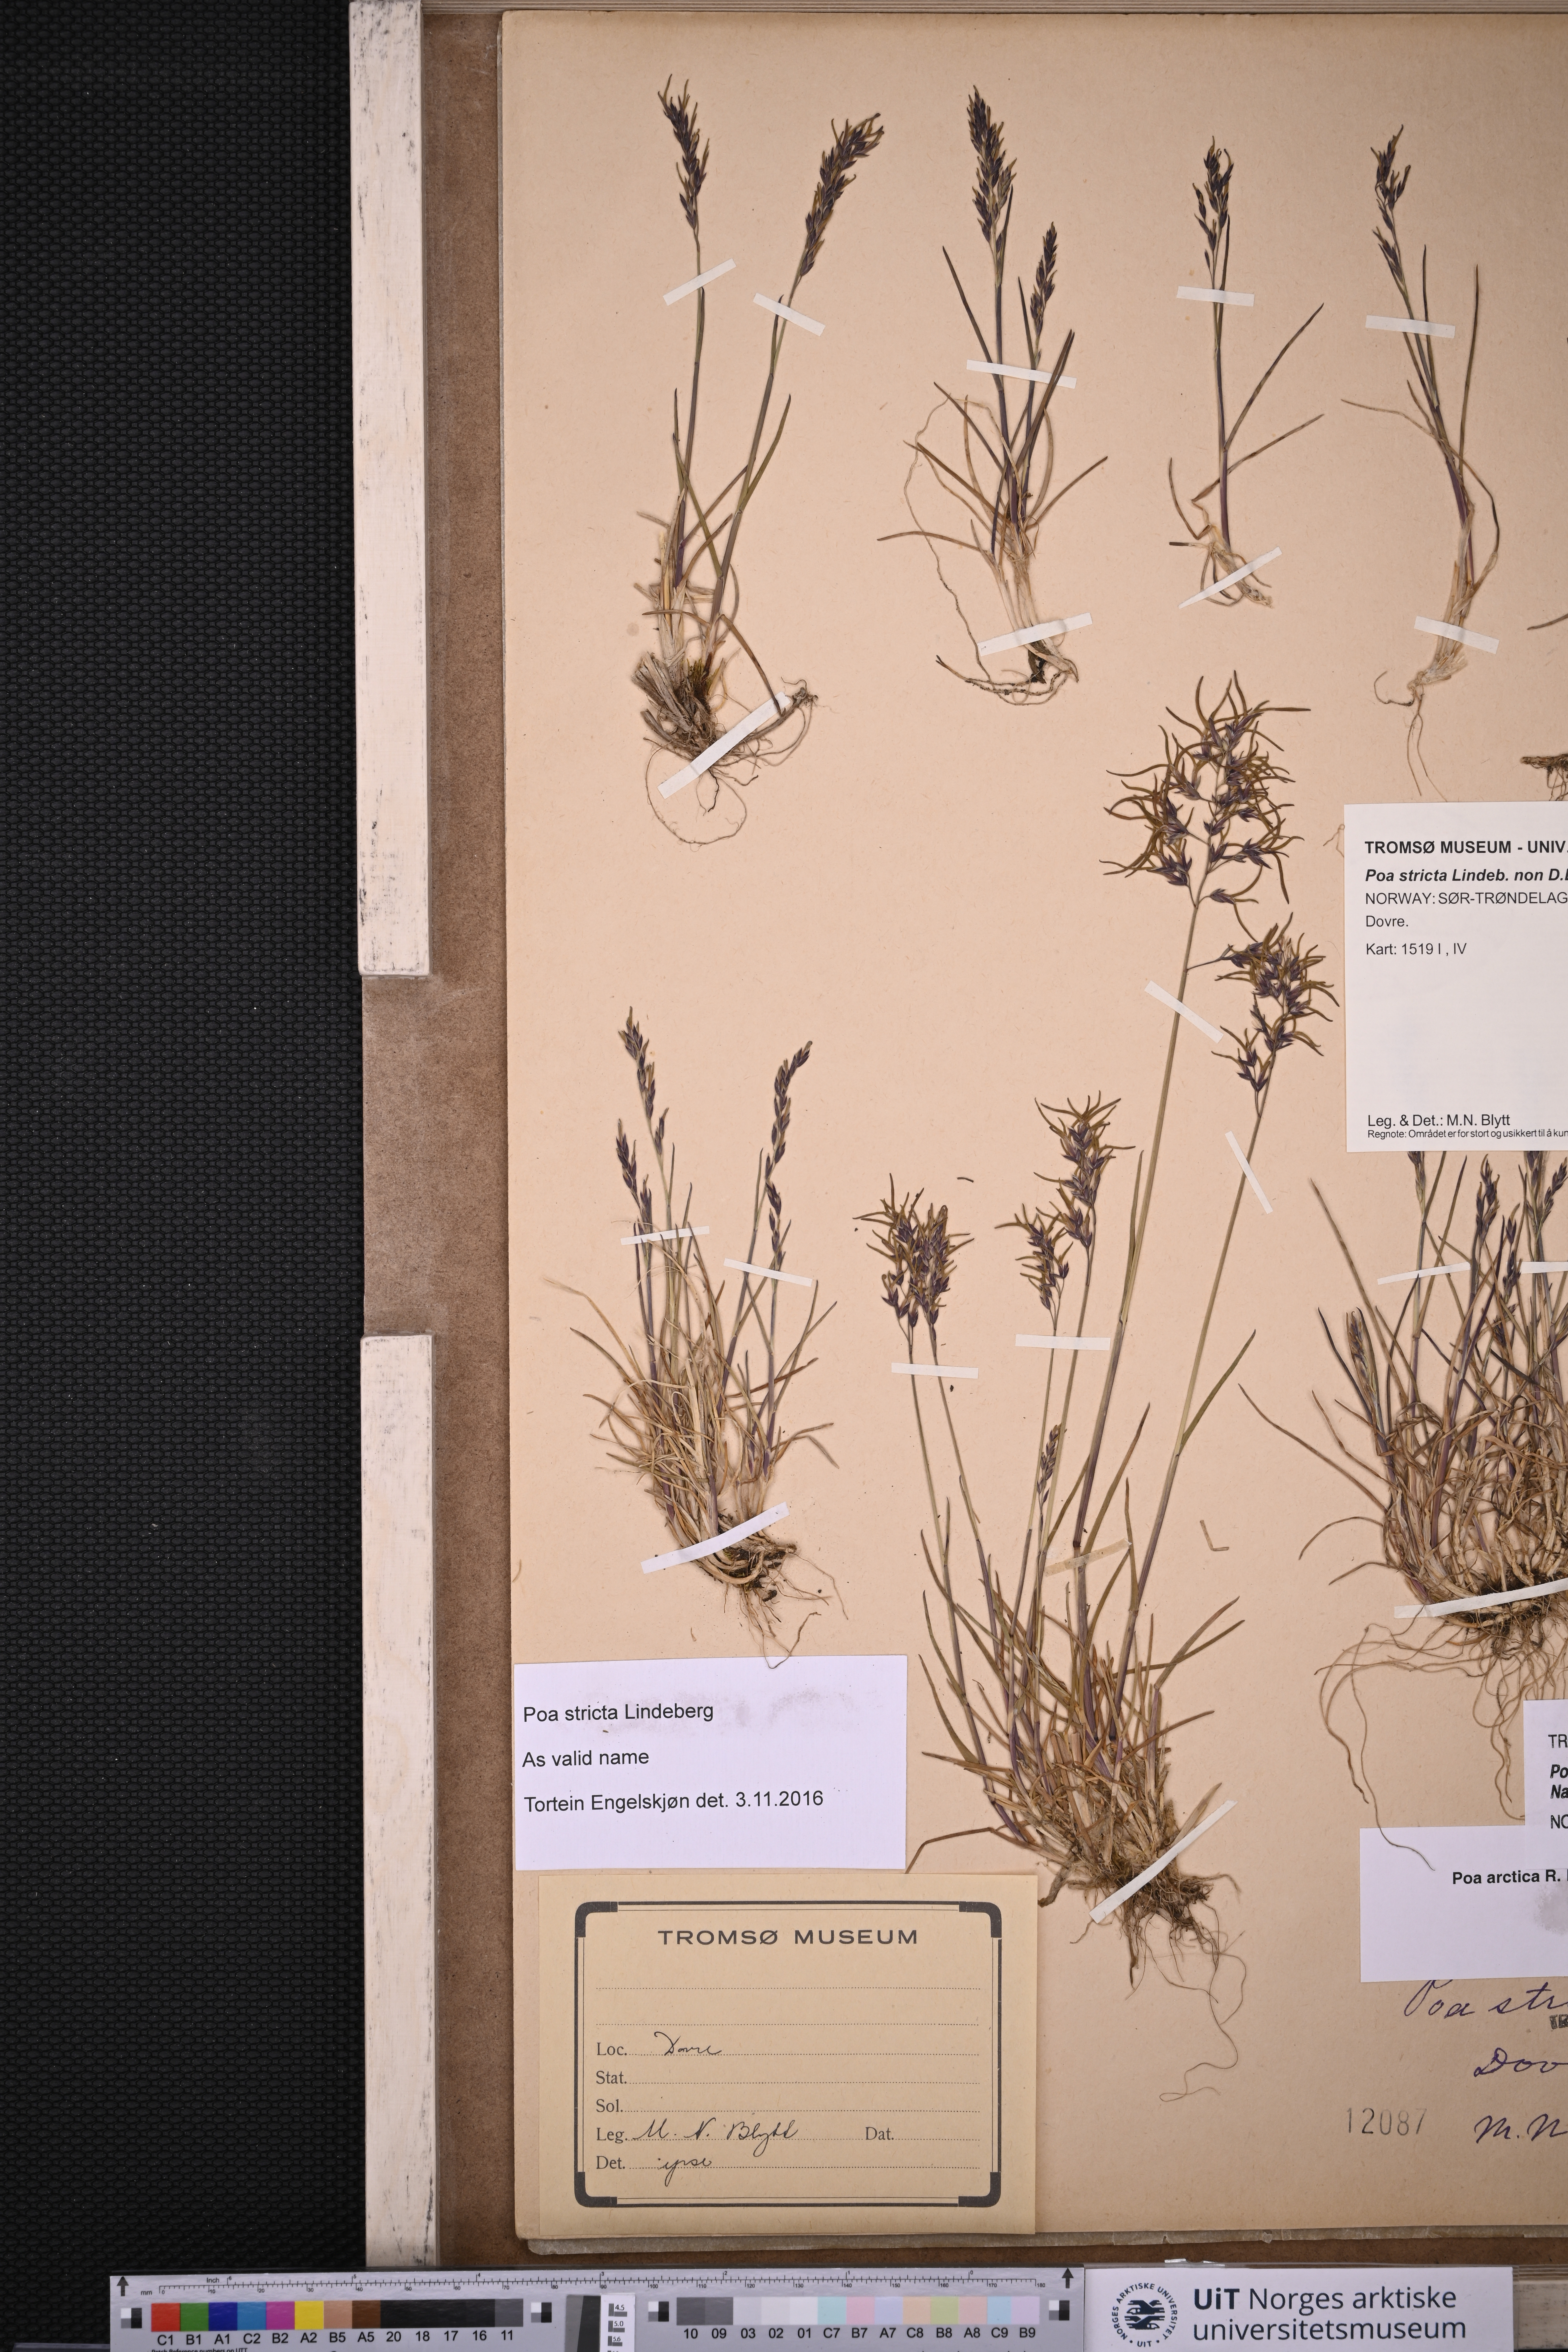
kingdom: Plantae
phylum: Tracheophyta
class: Liliopsida
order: Poales
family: Poaceae
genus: Poa
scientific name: Poa lindebergii
